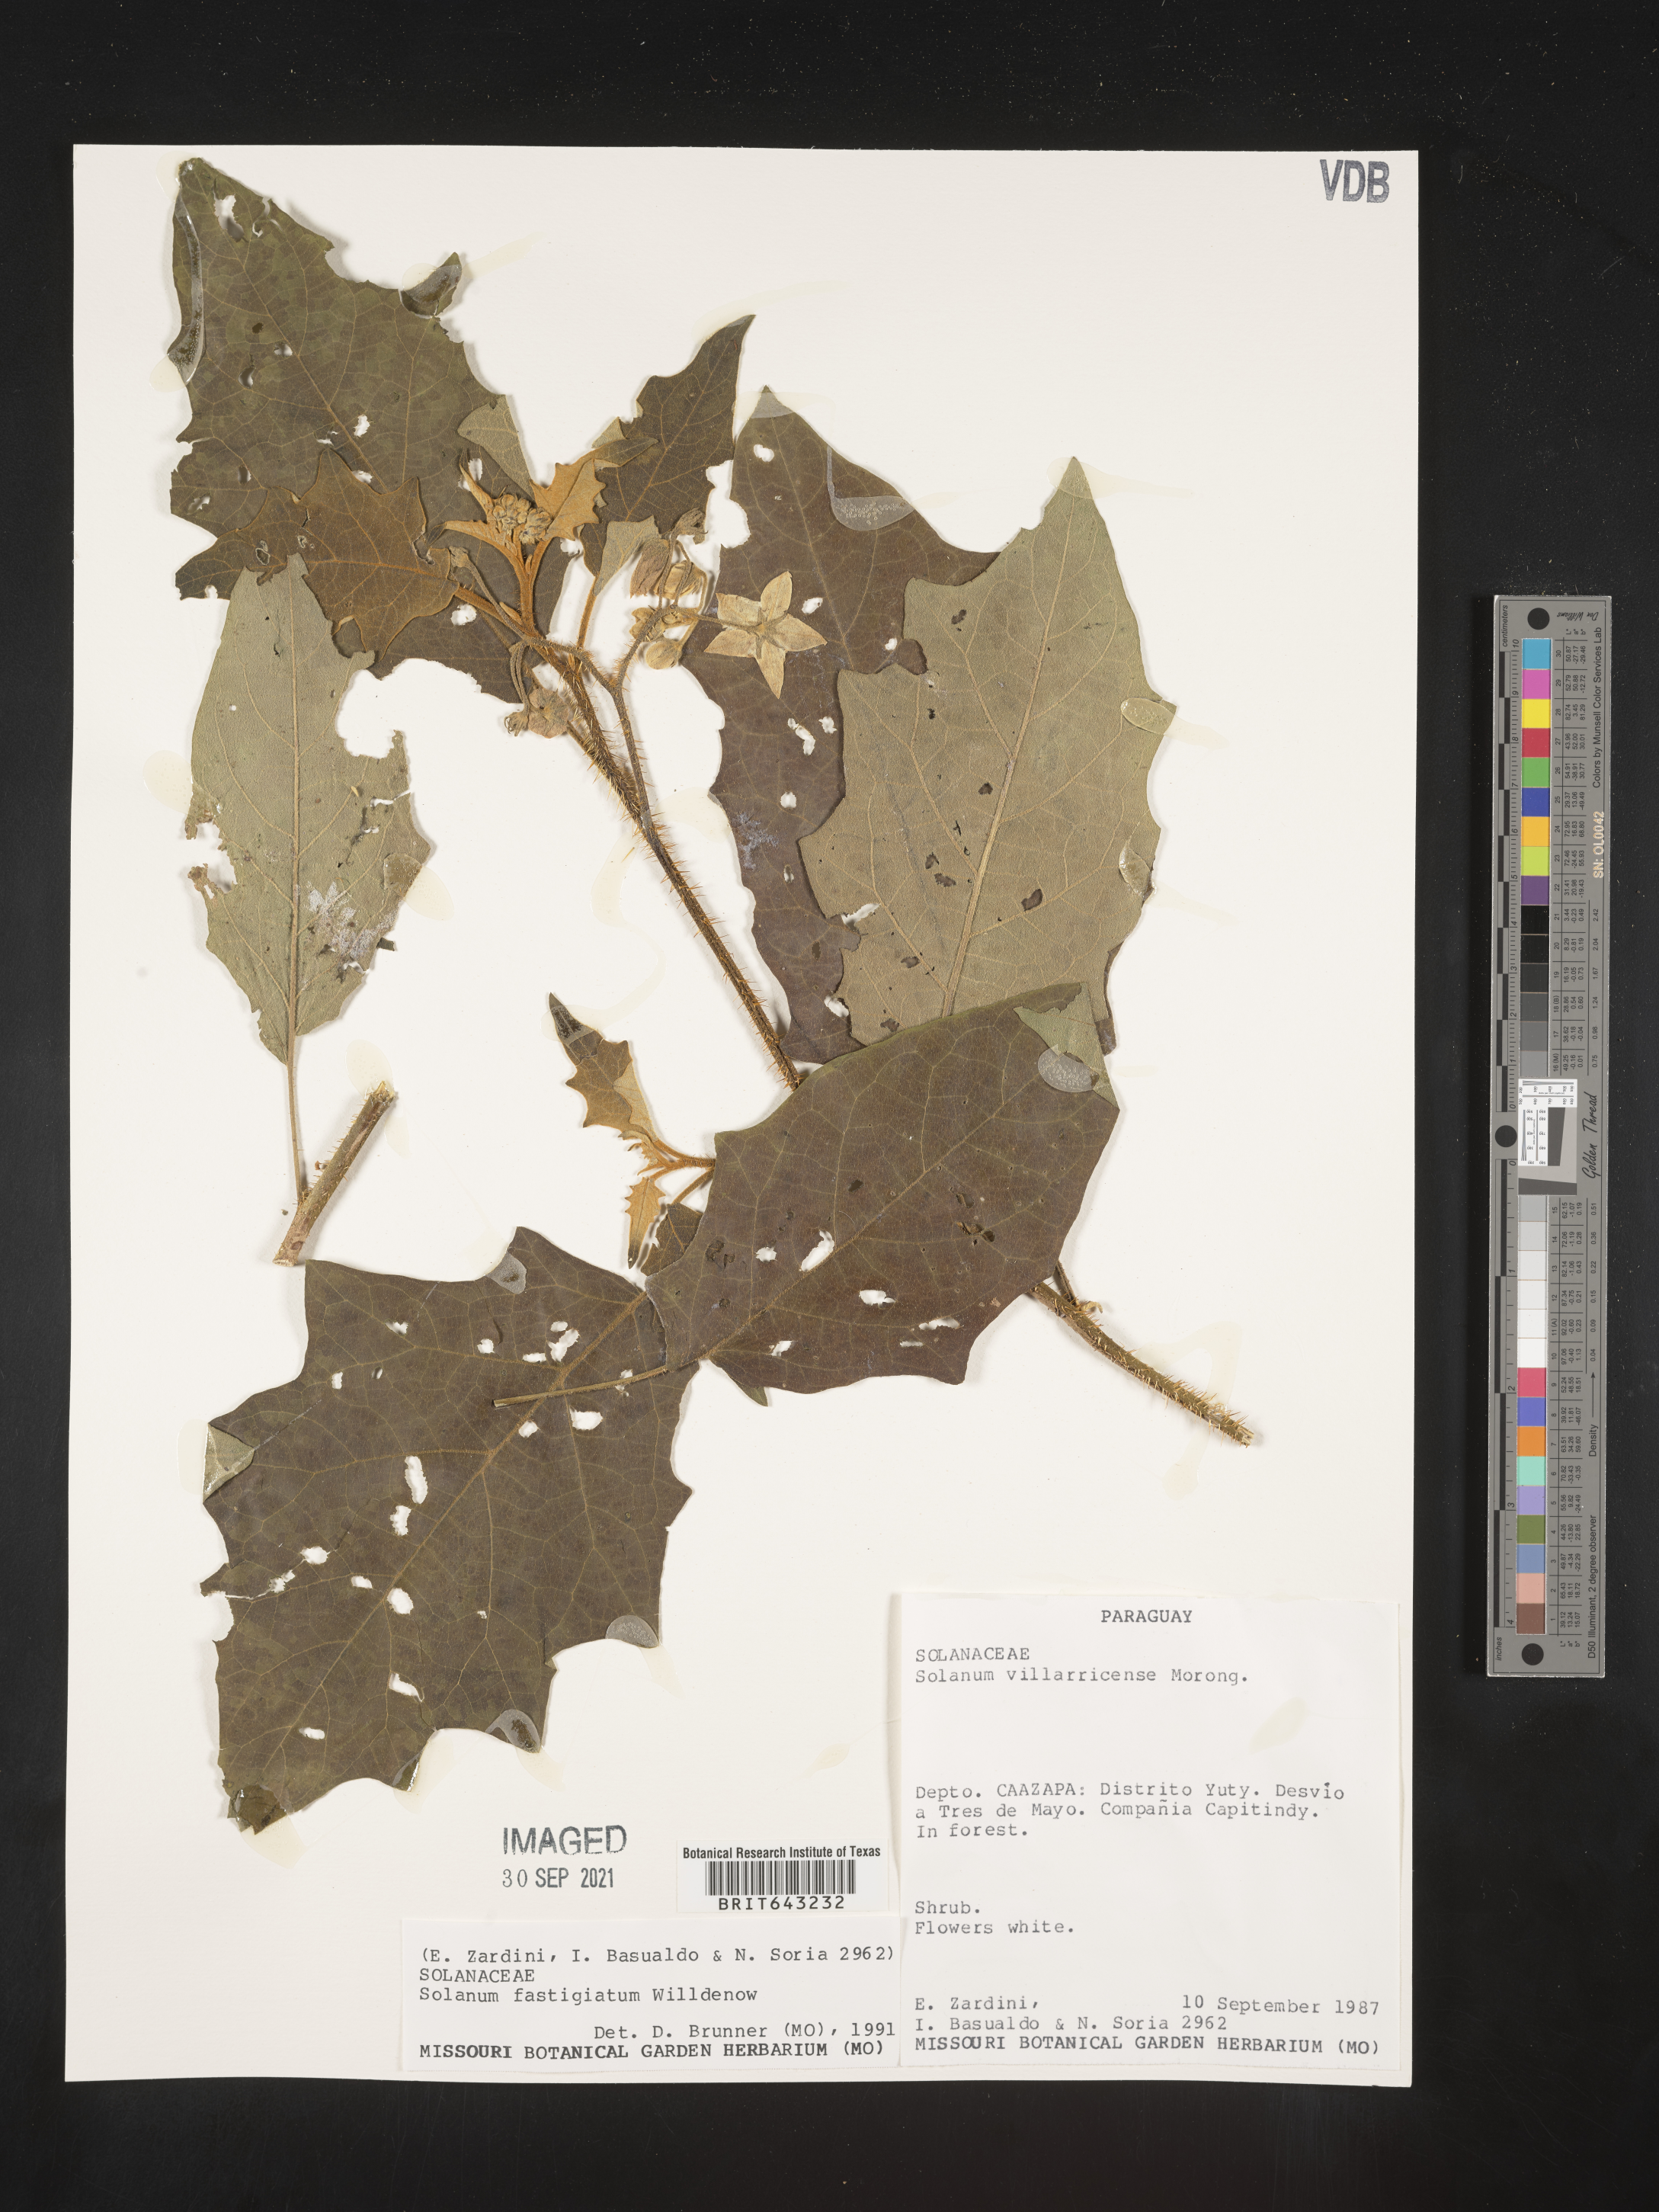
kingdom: Plantae
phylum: Tracheophyta
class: Magnoliopsida
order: Solanales
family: Solanaceae
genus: Solanum
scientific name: Solanum
